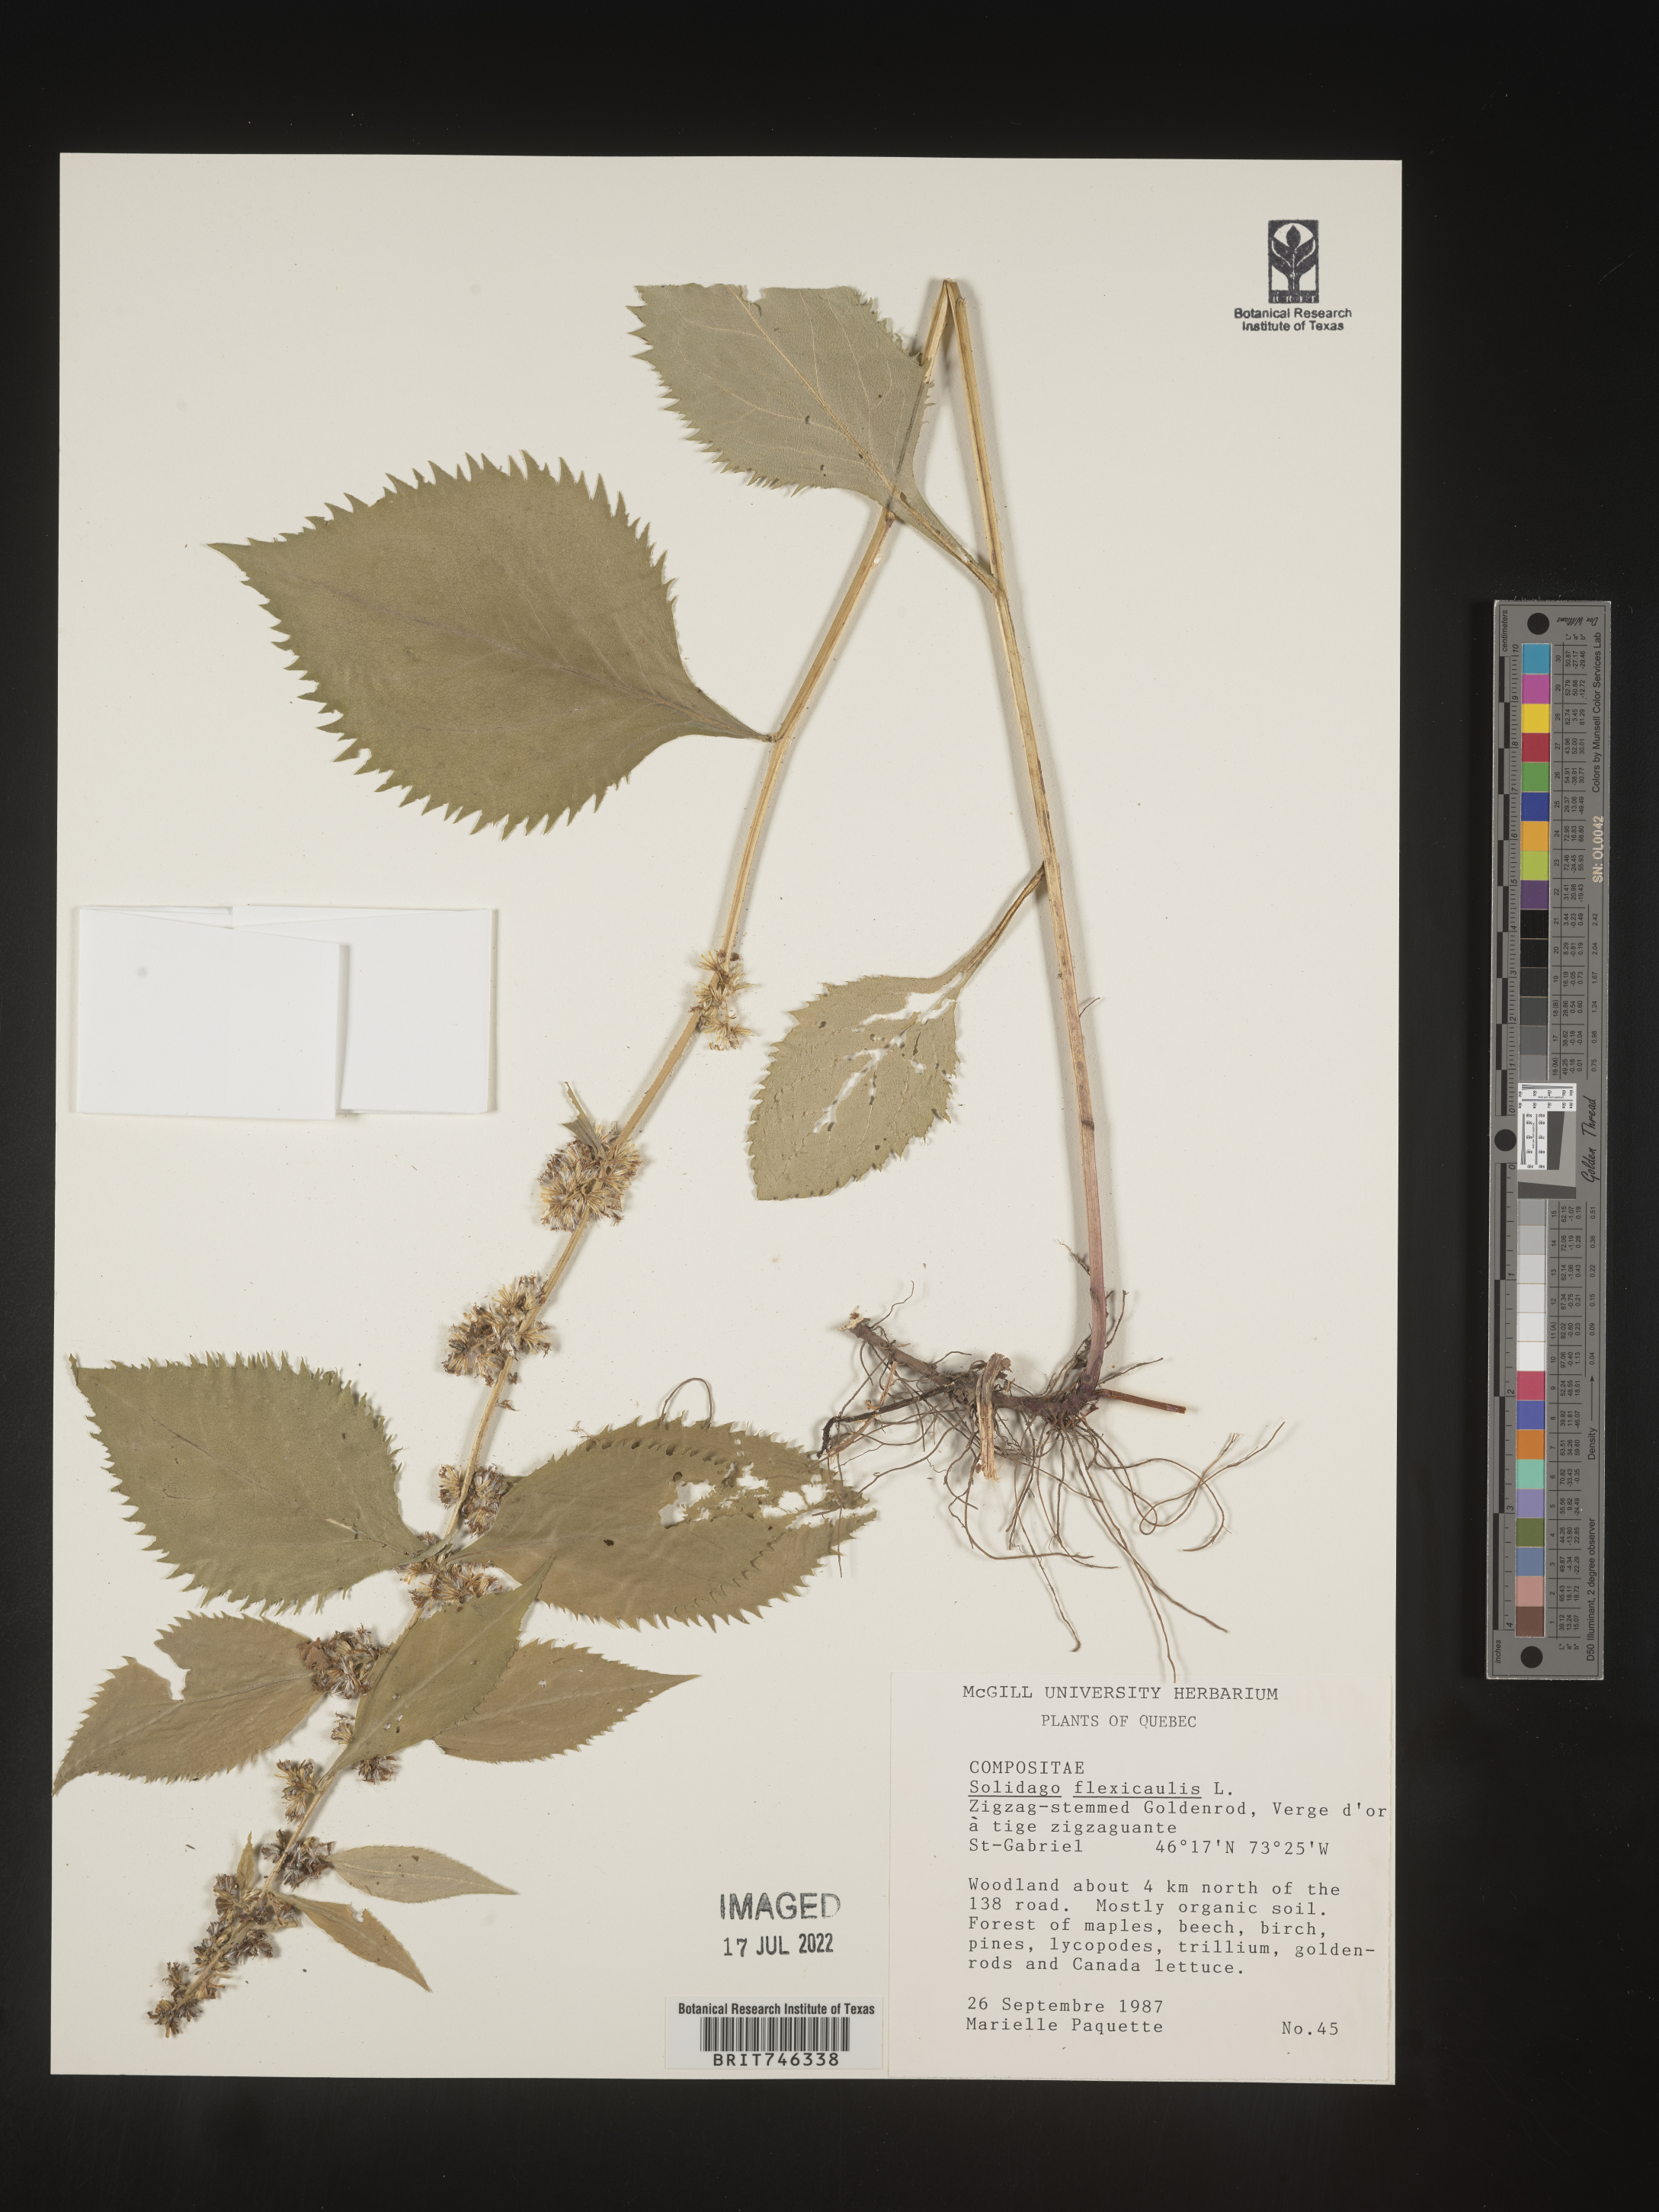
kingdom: Plantae
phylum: Tracheophyta
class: Magnoliopsida
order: Asterales
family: Asteraceae
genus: Solidago
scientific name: Solidago flexicaulis
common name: Zig-zag goldenrod
